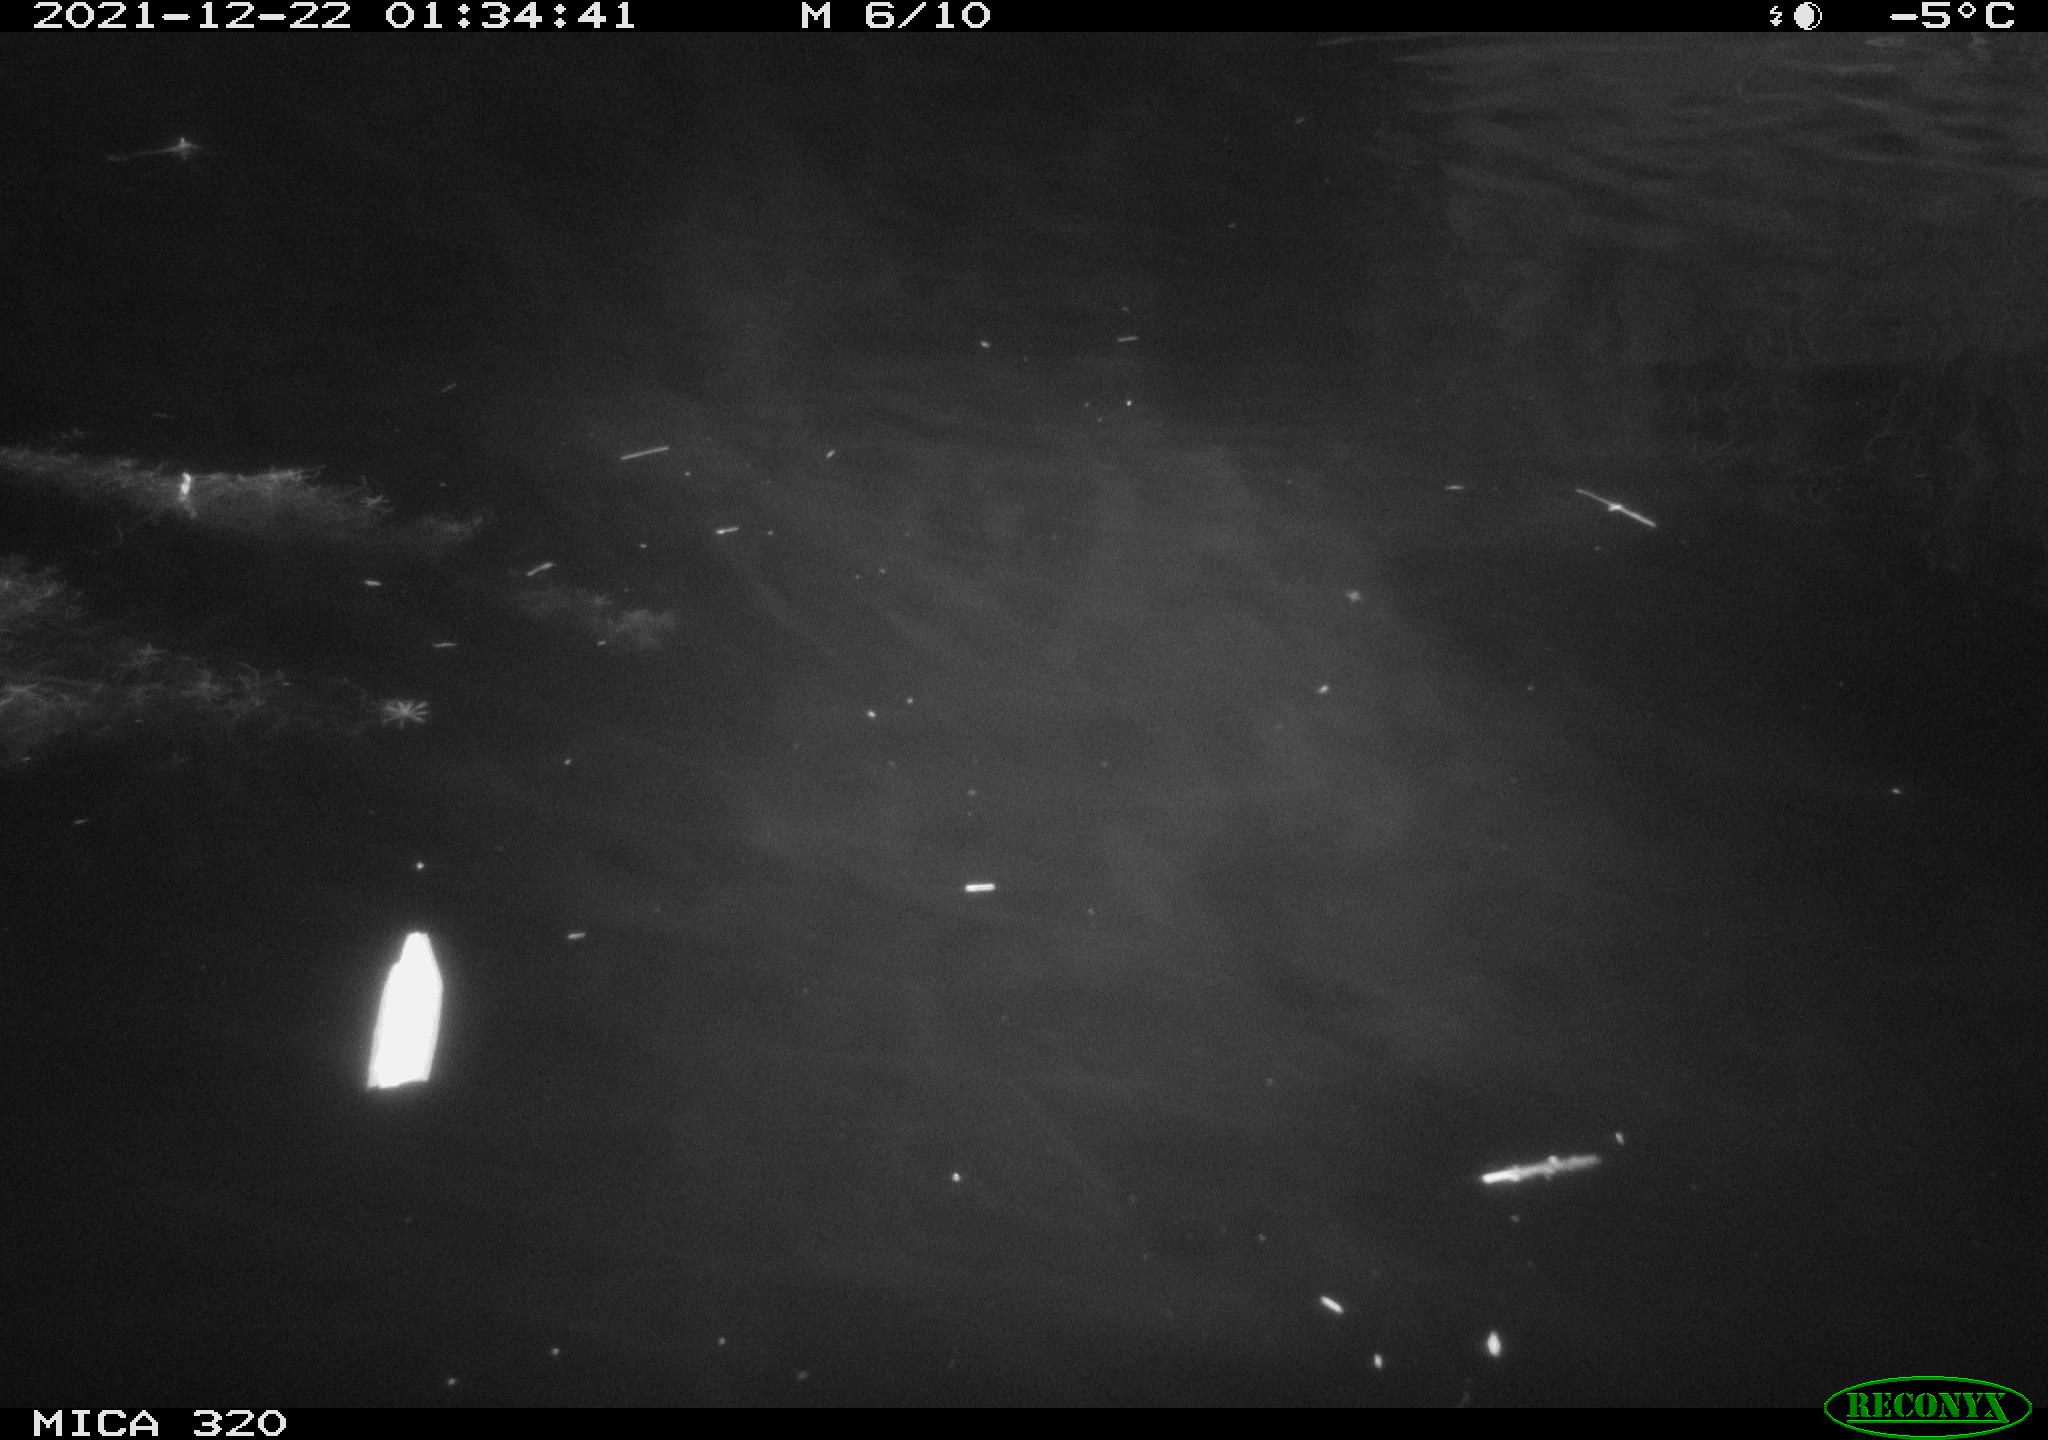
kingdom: Animalia
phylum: Chordata
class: Aves
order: Anseriformes
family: Anatidae
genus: Anas
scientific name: Anas platyrhynchos
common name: Mallard
